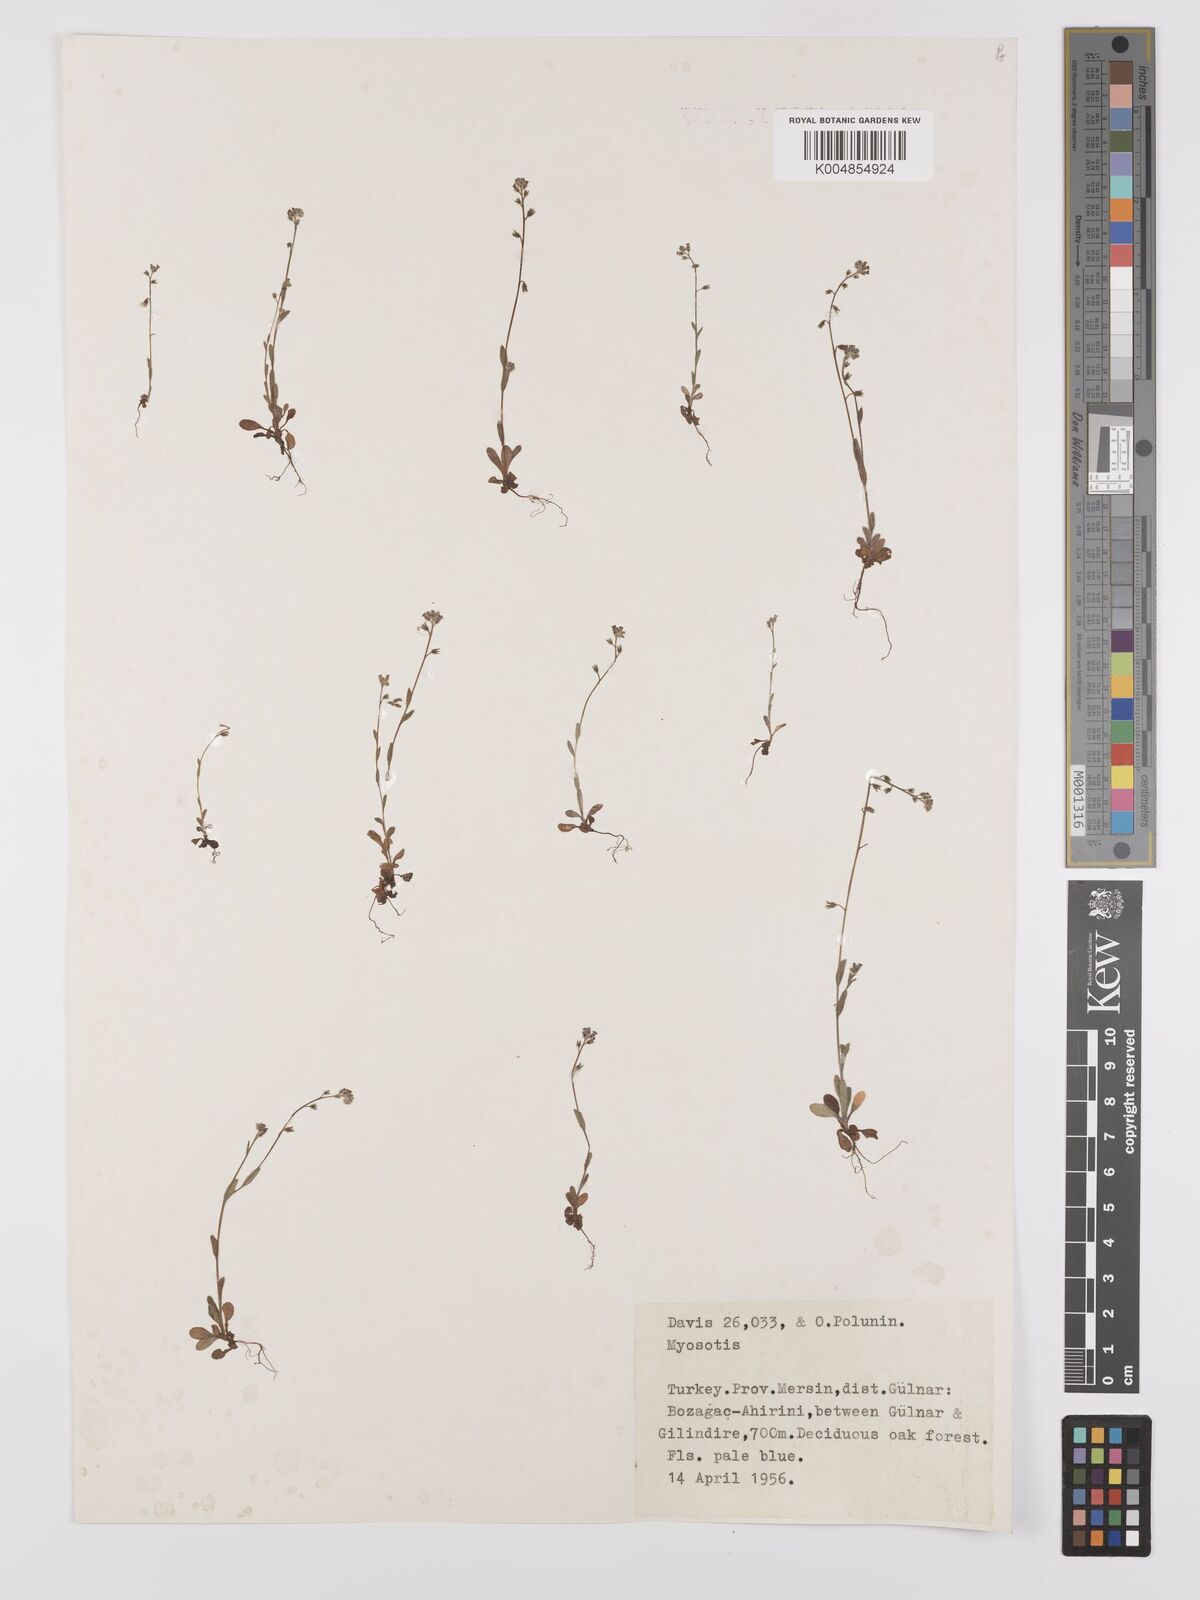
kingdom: Plantae
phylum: Tracheophyta
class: Magnoliopsida
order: Boraginales
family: Boraginaceae
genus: Myosotis
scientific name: Myosotis
